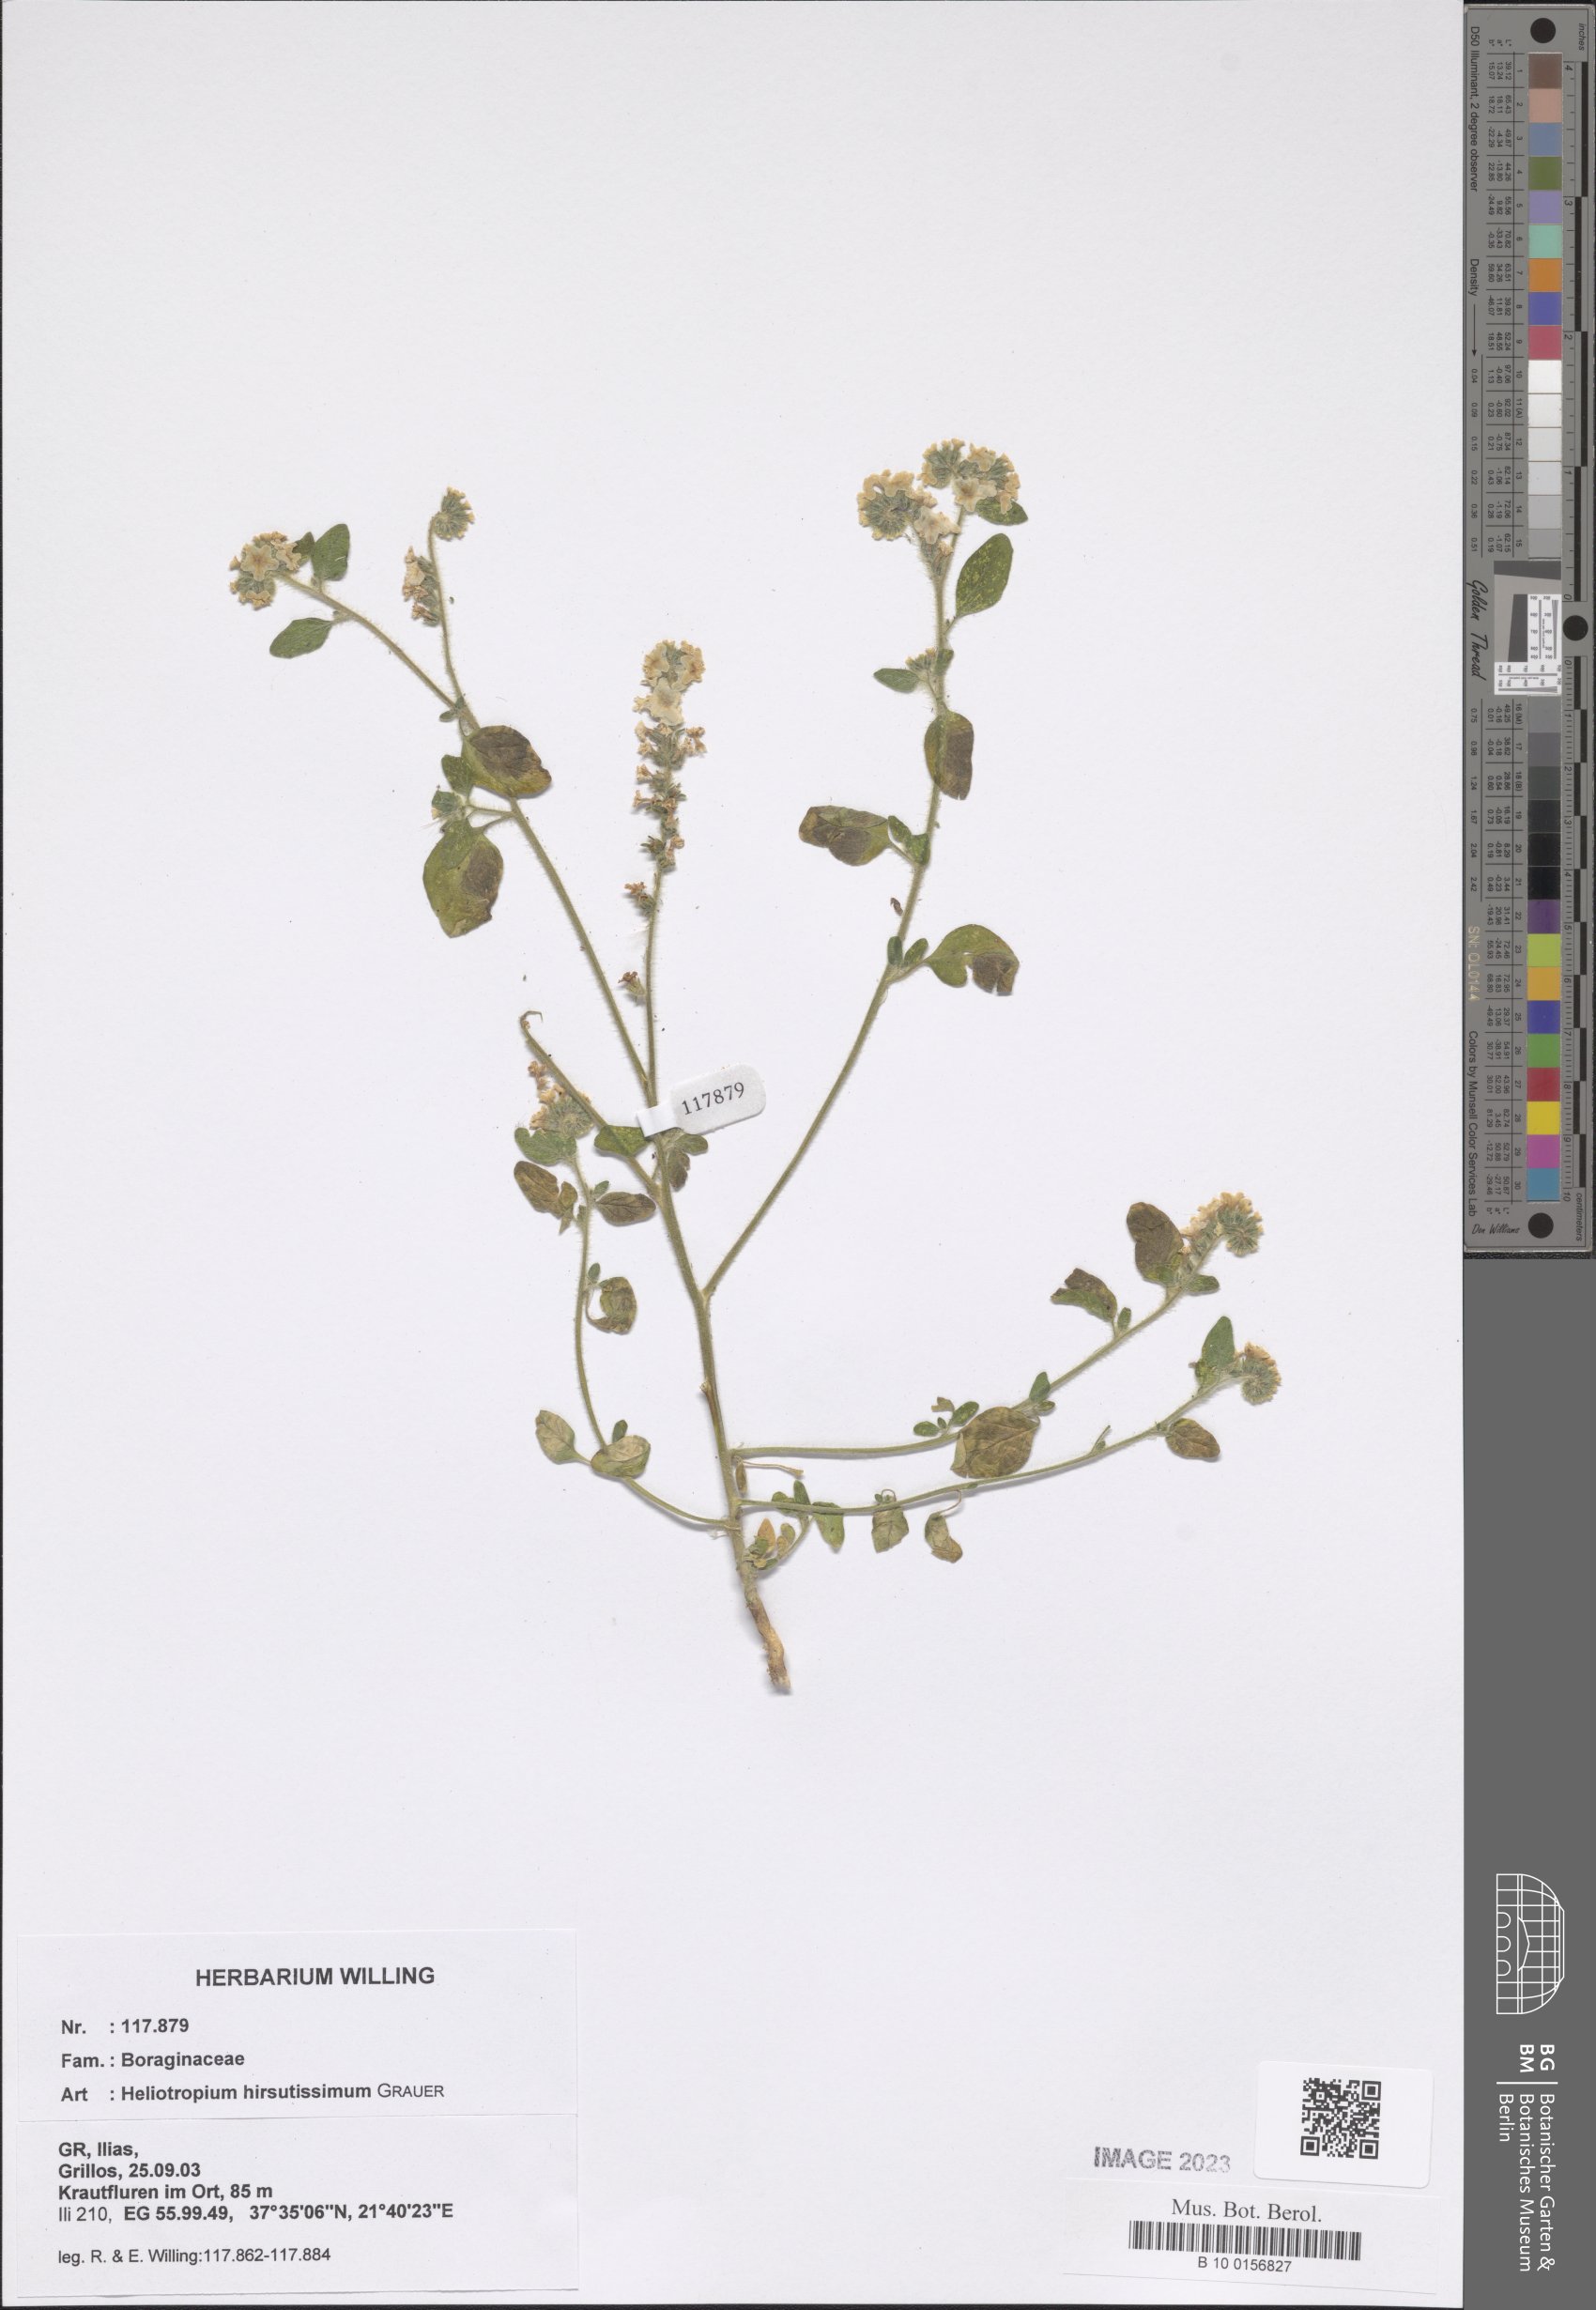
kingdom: Plantae
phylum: Tracheophyta
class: Magnoliopsida
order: Boraginales
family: Heliotropiaceae
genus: Heliotropium
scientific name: Heliotropium hirsutissimum
